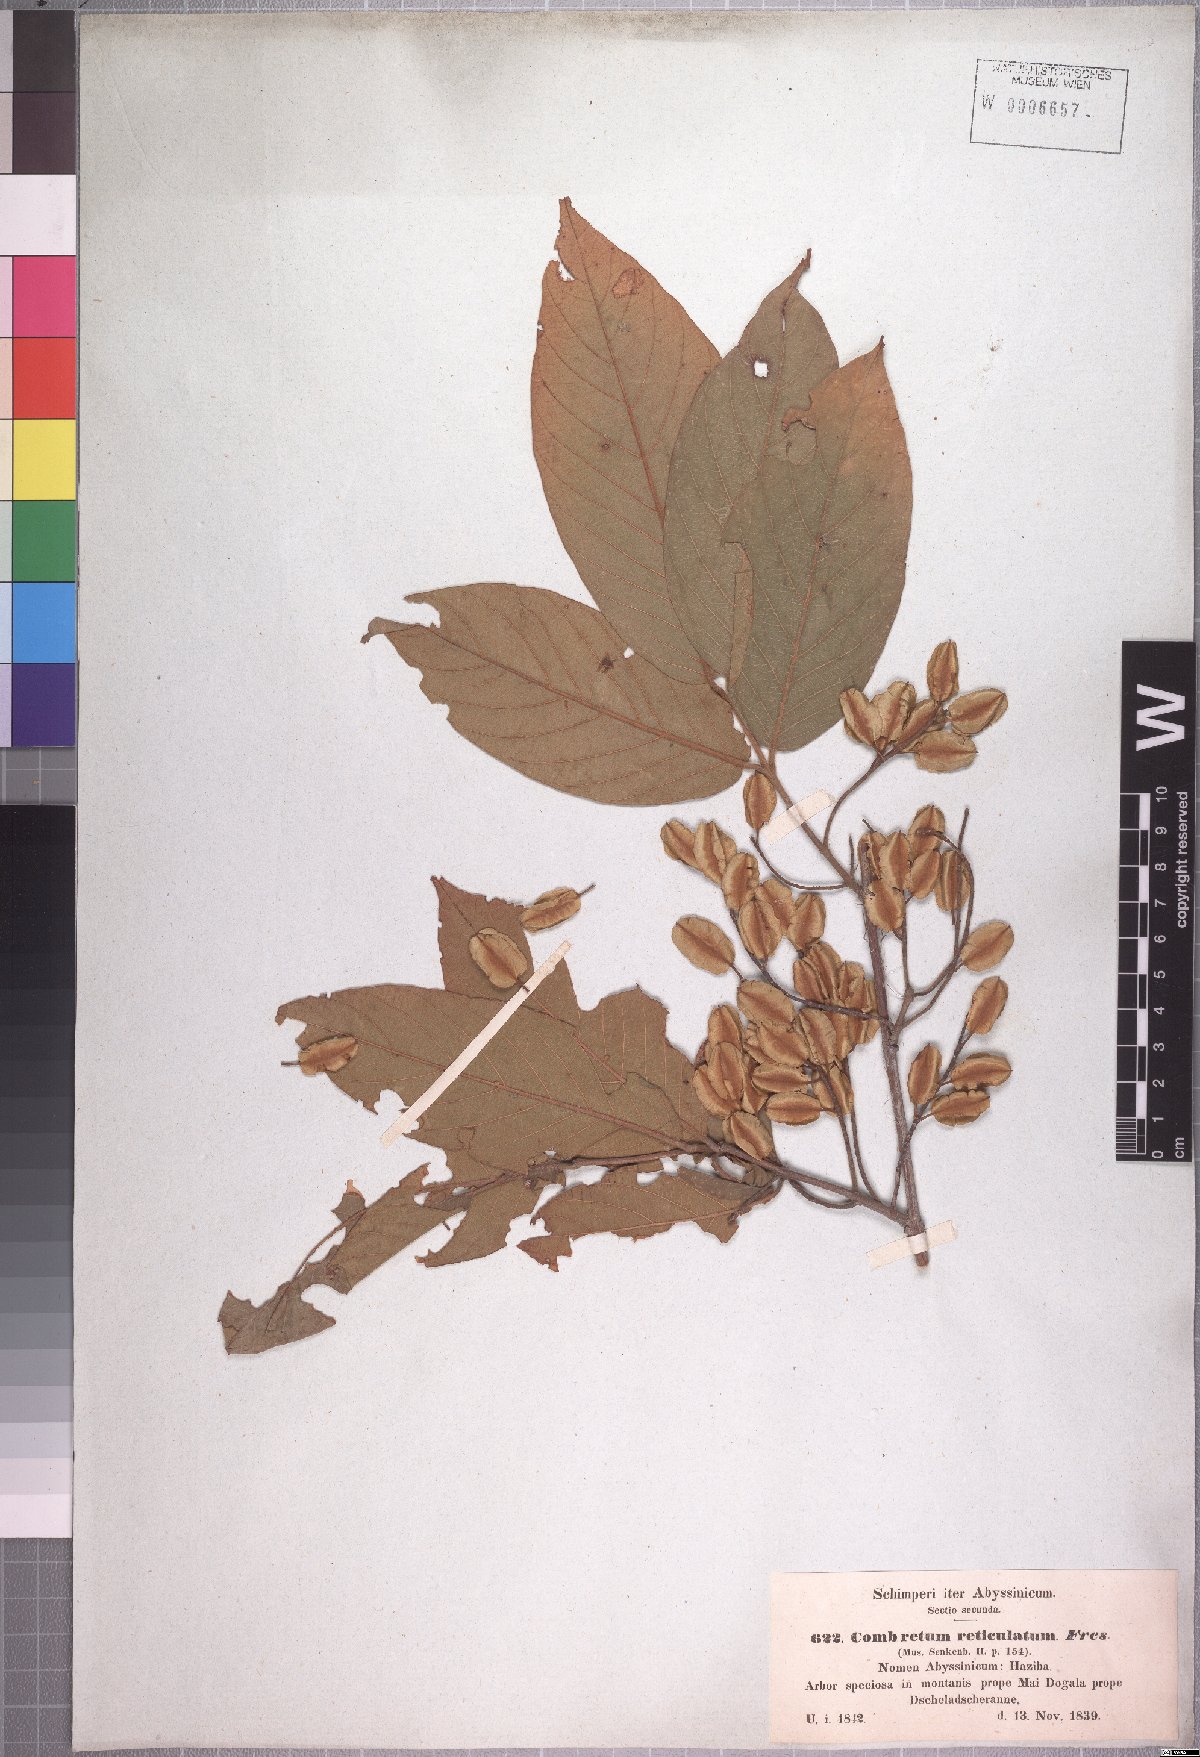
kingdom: Plantae
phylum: Tracheophyta
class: Magnoliopsida
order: Myrtales
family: Combretaceae
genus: Combretum
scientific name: Combretum molle
